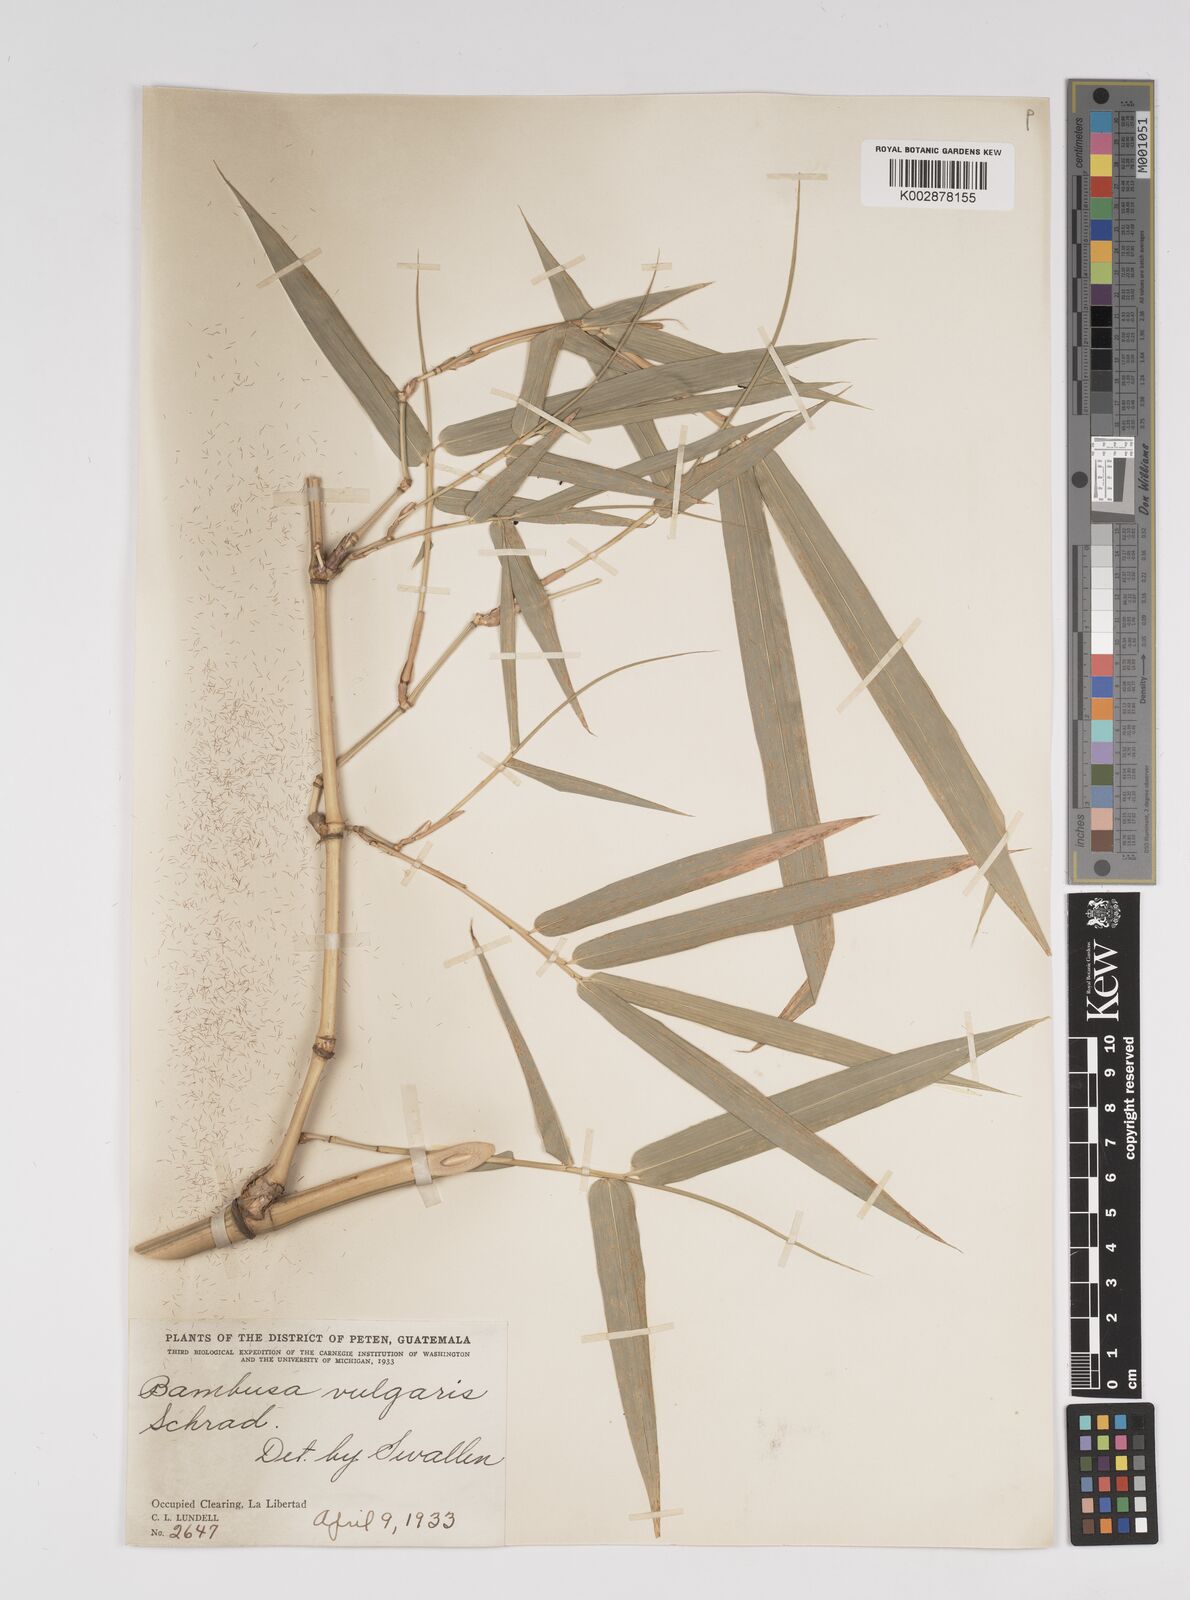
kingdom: Plantae
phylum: Tracheophyta
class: Liliopsida
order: Poales
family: Poaceae
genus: Bambusa
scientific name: Bambusa
